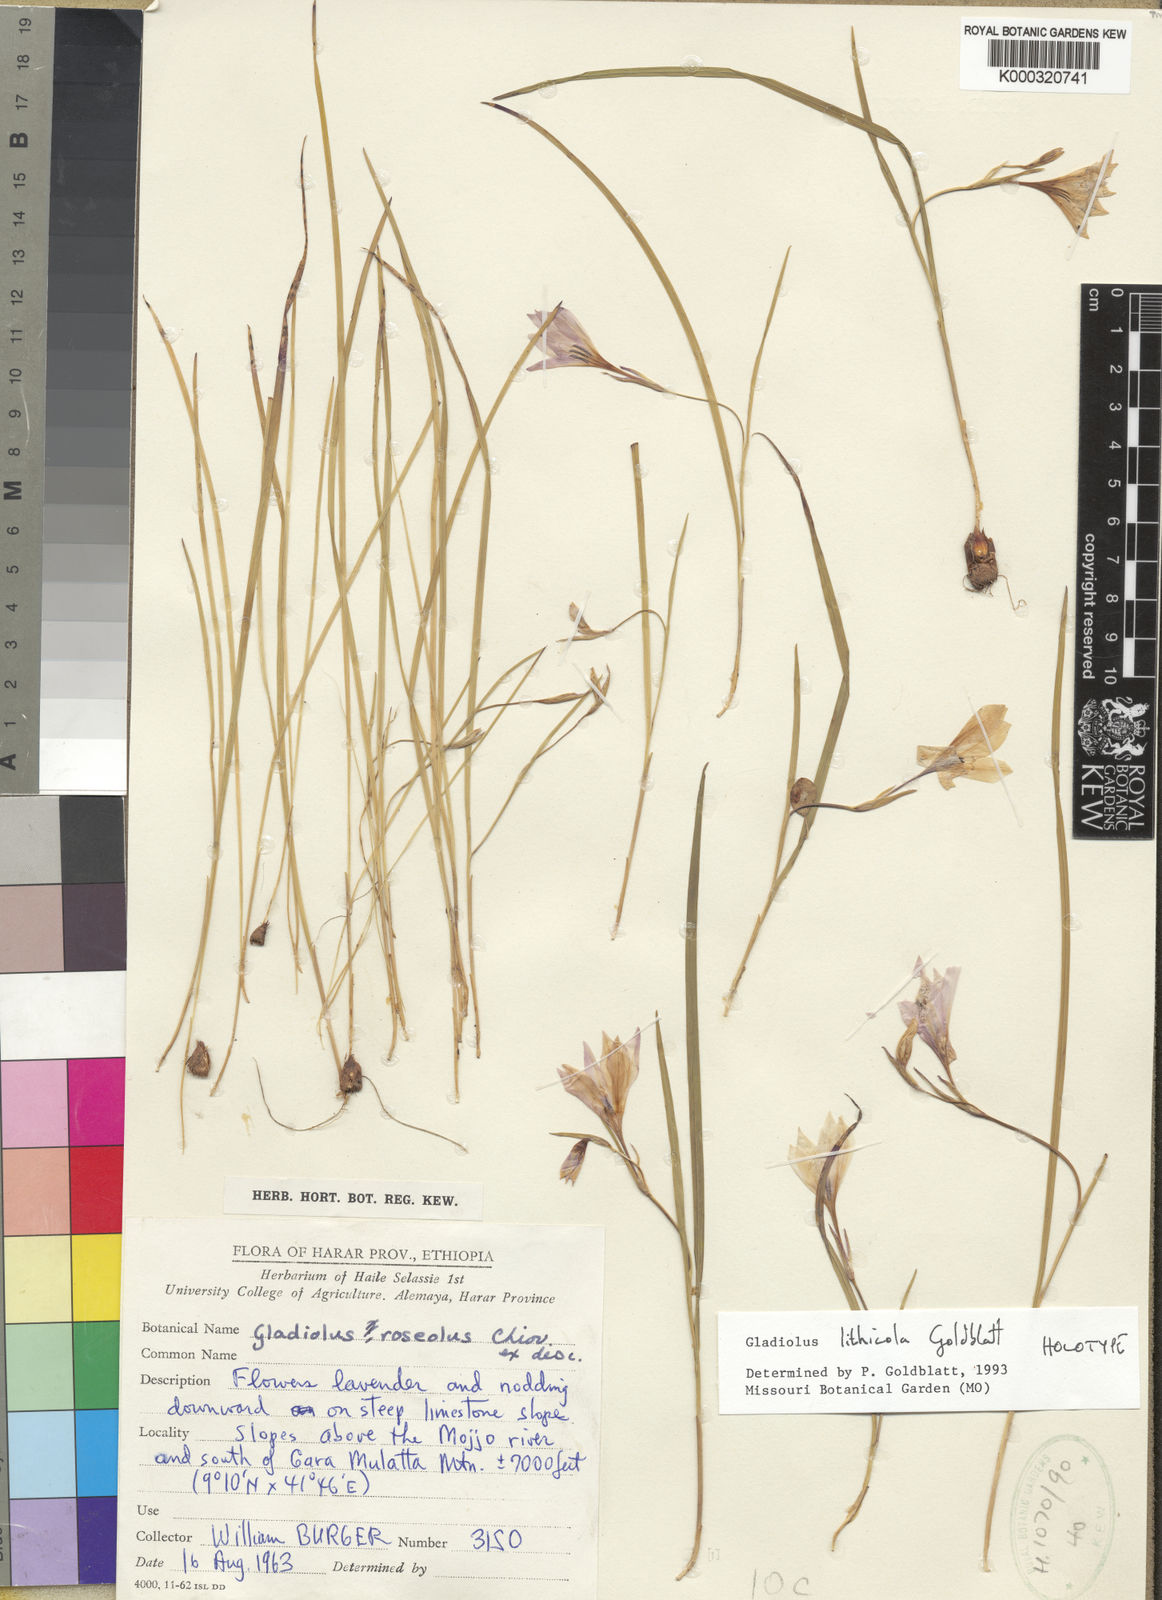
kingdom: Plantae
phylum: Tracheophyta
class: Liliopsida
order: Asparagales
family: Iridaceae
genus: Gladiolus
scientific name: Gladiolus lithicola
